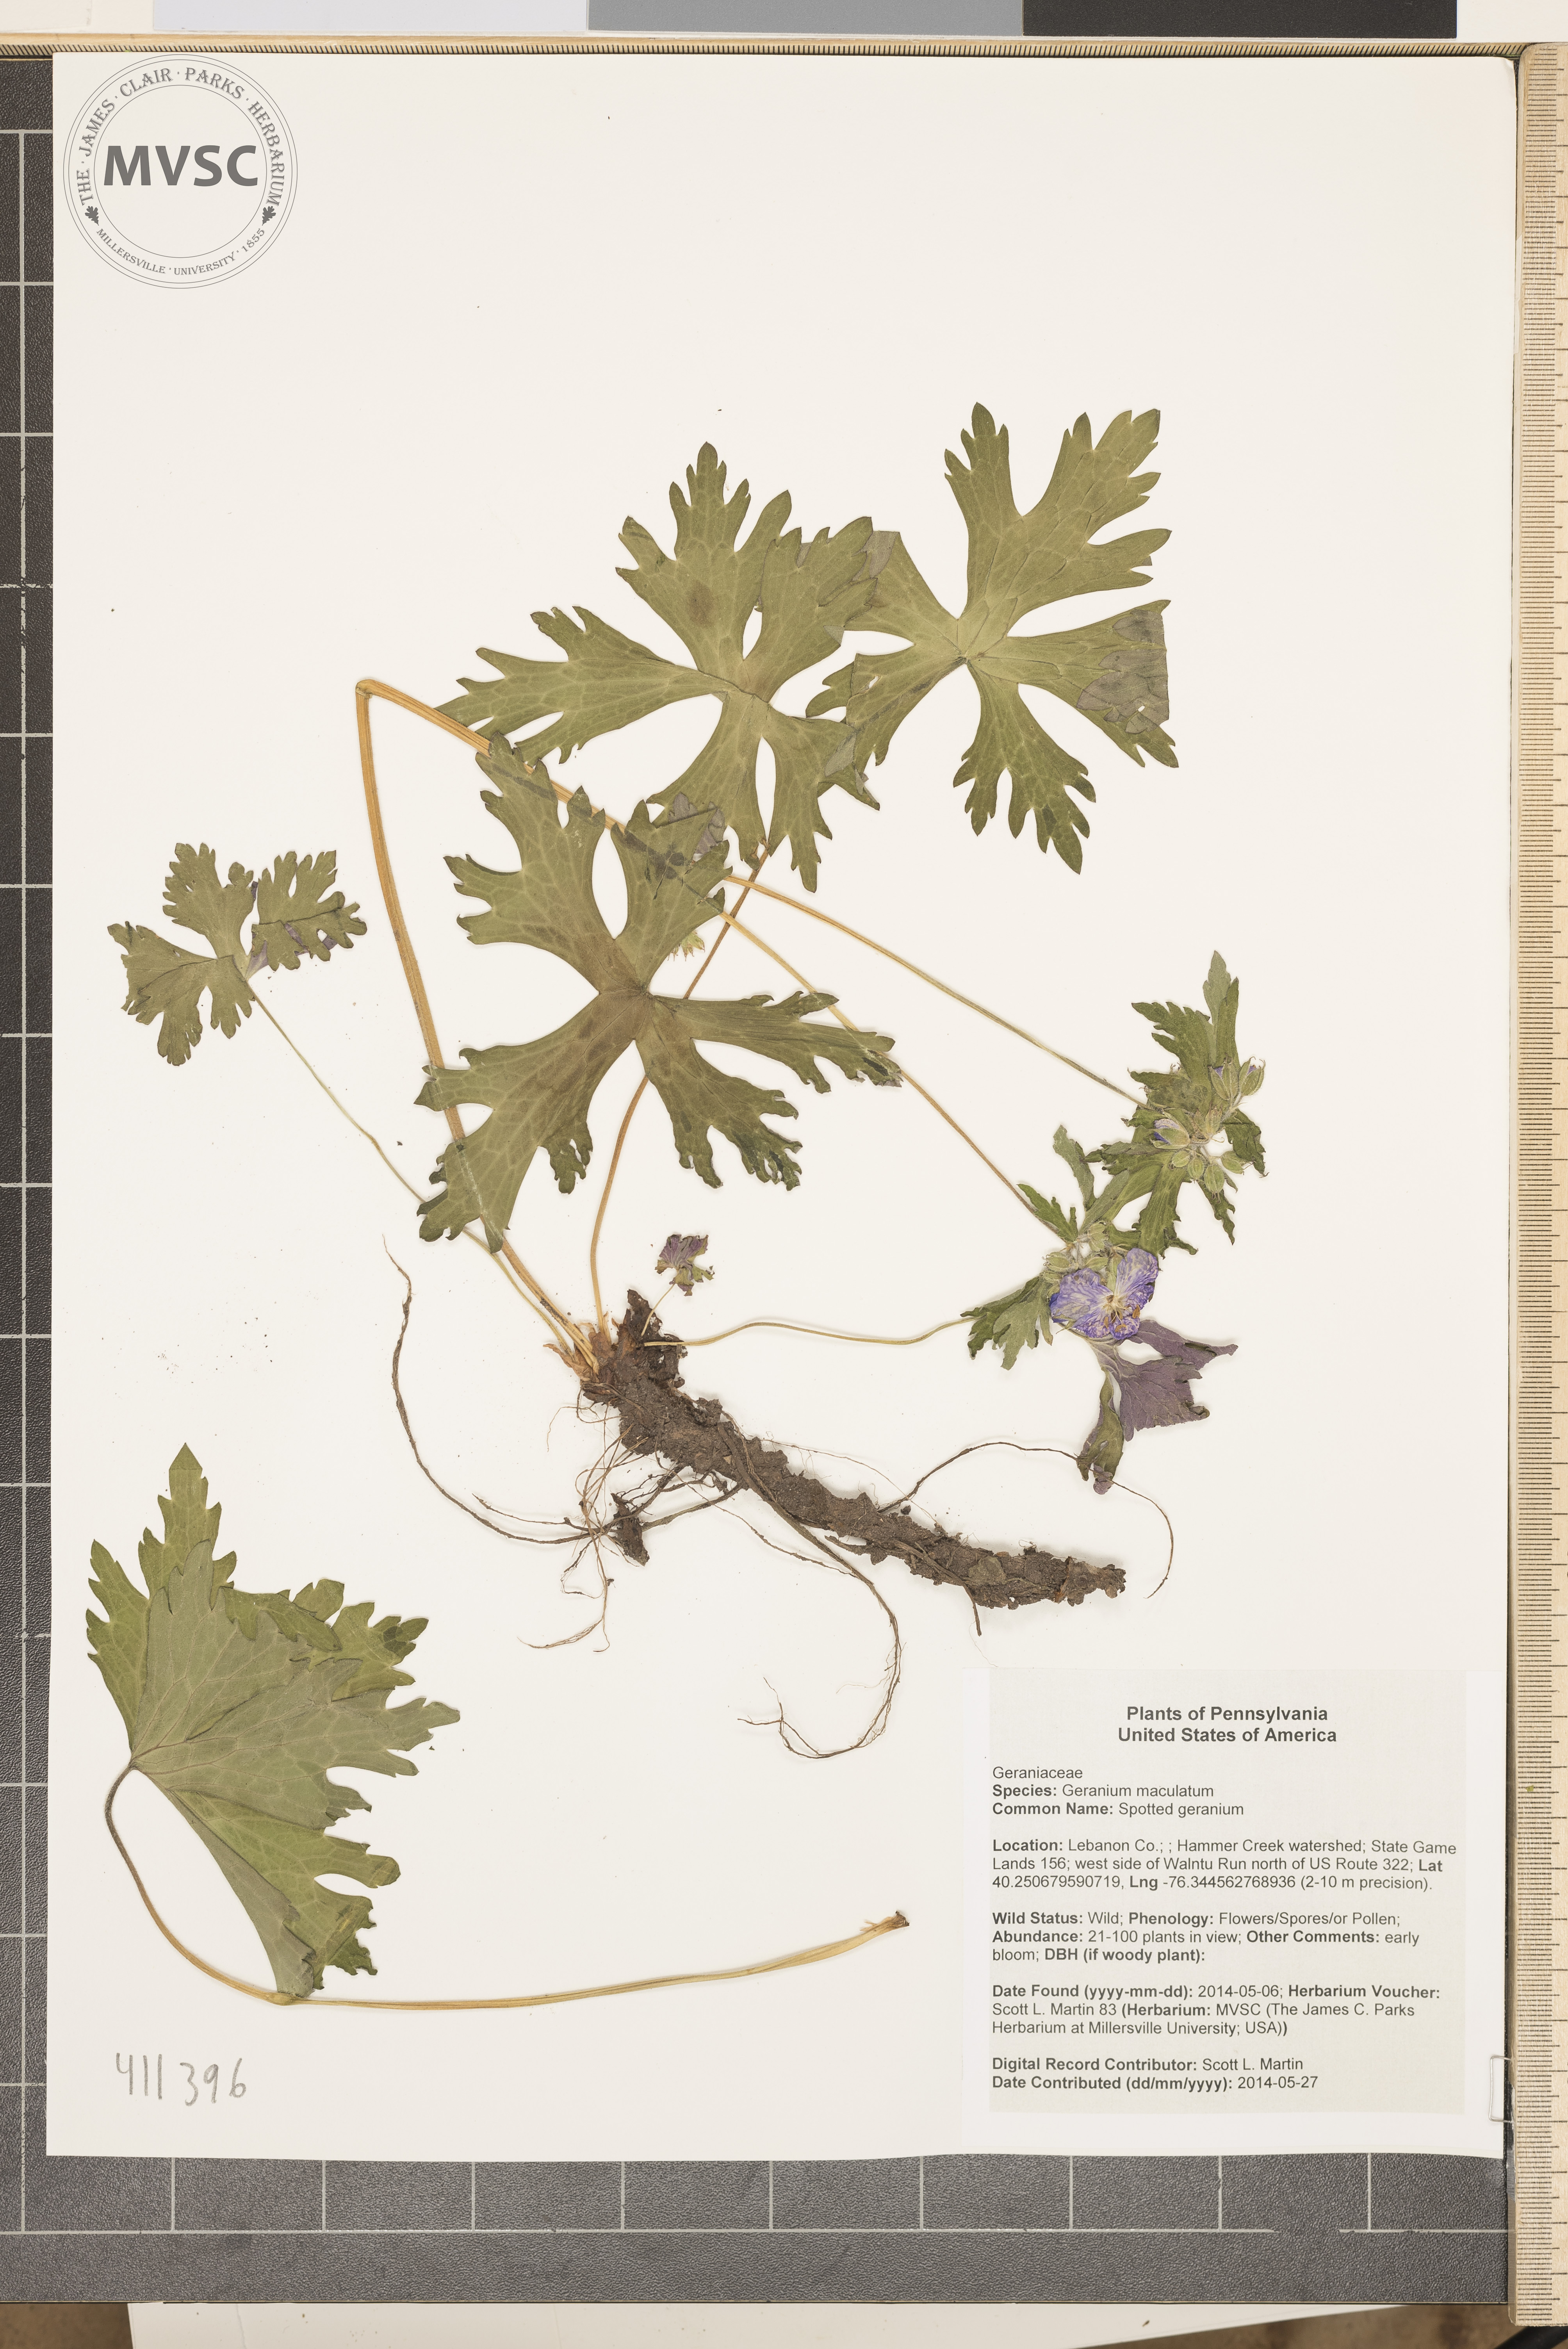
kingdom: Plantae
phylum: Tracheophyta
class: Magnoliopsida
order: Geraniales
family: Geraniaceae
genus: Geranium
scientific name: Geranium maculatum
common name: Spotted geranium
